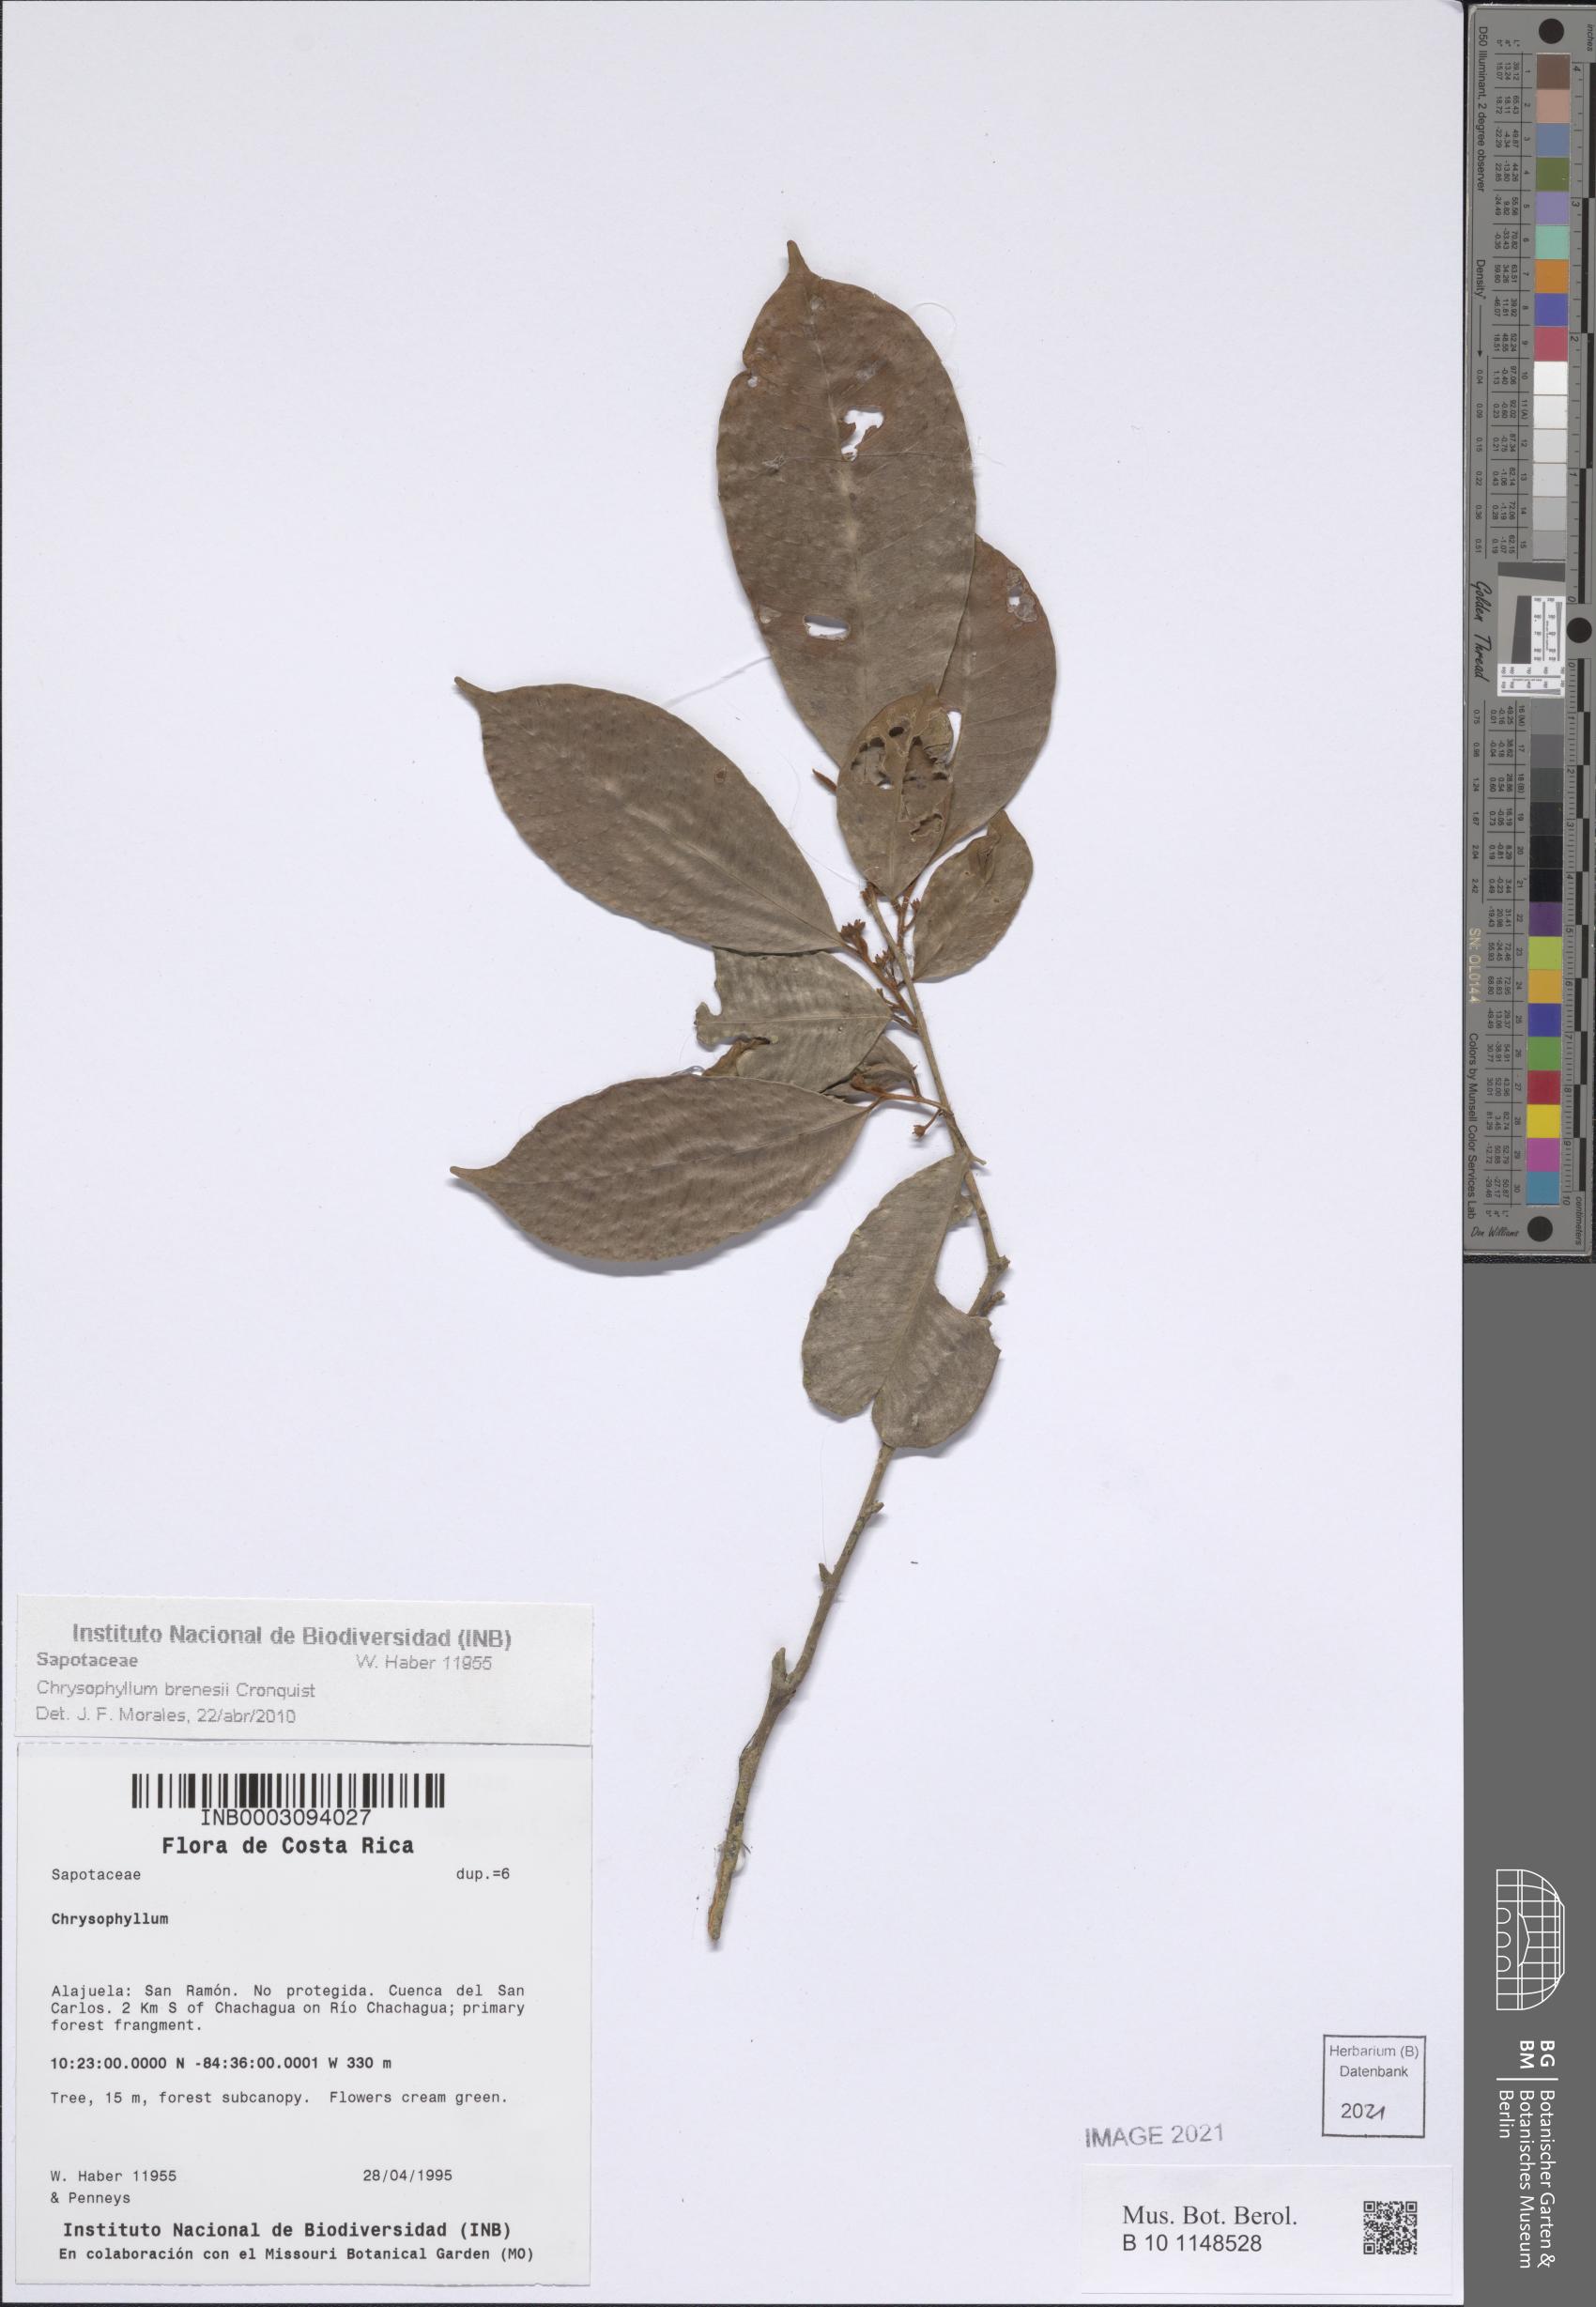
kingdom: Plantae
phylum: Tracheophyta
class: Magnoliopsida
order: Ericales
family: Sapotaceae
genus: Chrysophyllum
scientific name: Chrysophyllum brenesii
